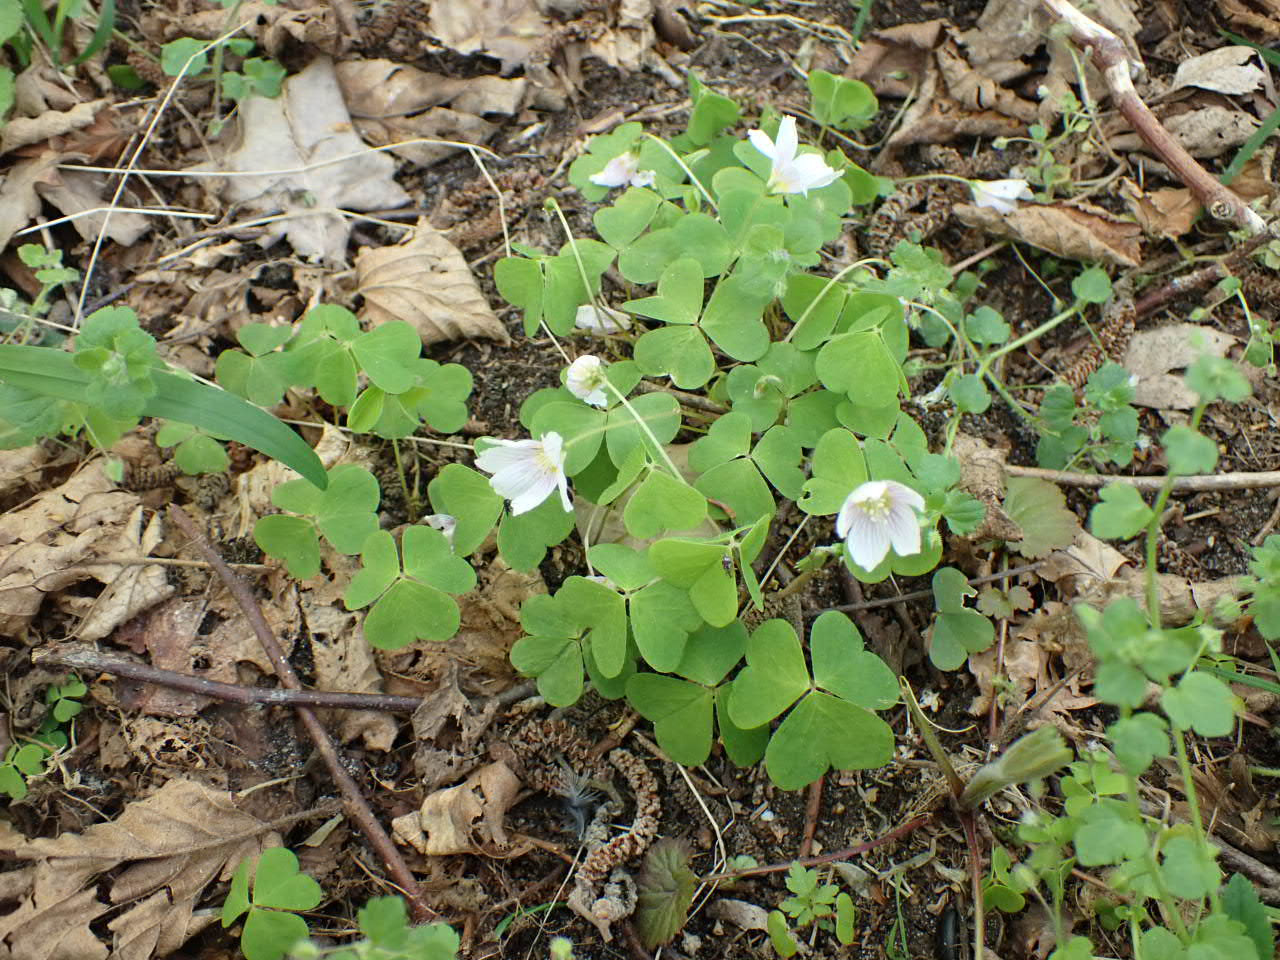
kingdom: Plantae
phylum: Tracheophyta
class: Magnoliopsida
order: Oxalidales
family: Oxalidaceae
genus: Oxalis
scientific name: Oxalis acetosella
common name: Skovsyre
